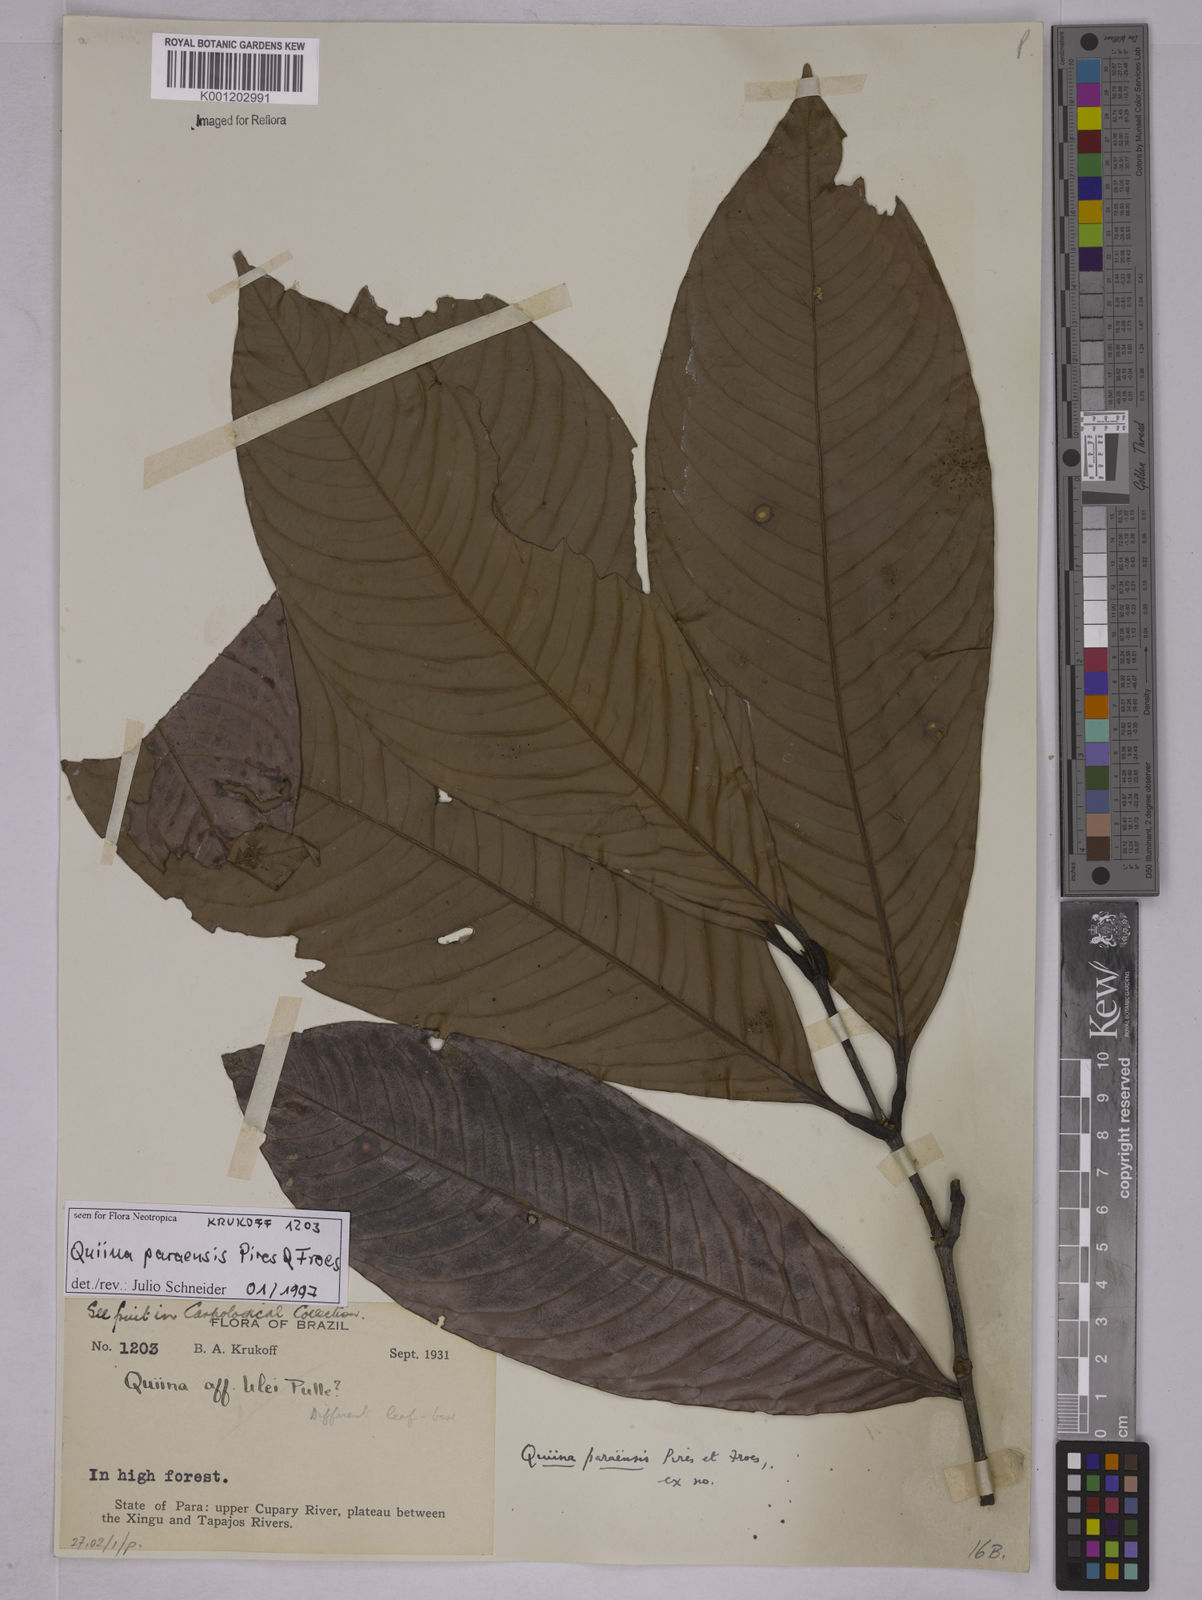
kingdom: Plantae
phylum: Tracheophyta
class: Magnoliopsida
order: Malpighiales
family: Quiinaceae
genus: Quiina
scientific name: Quiina paraensis
